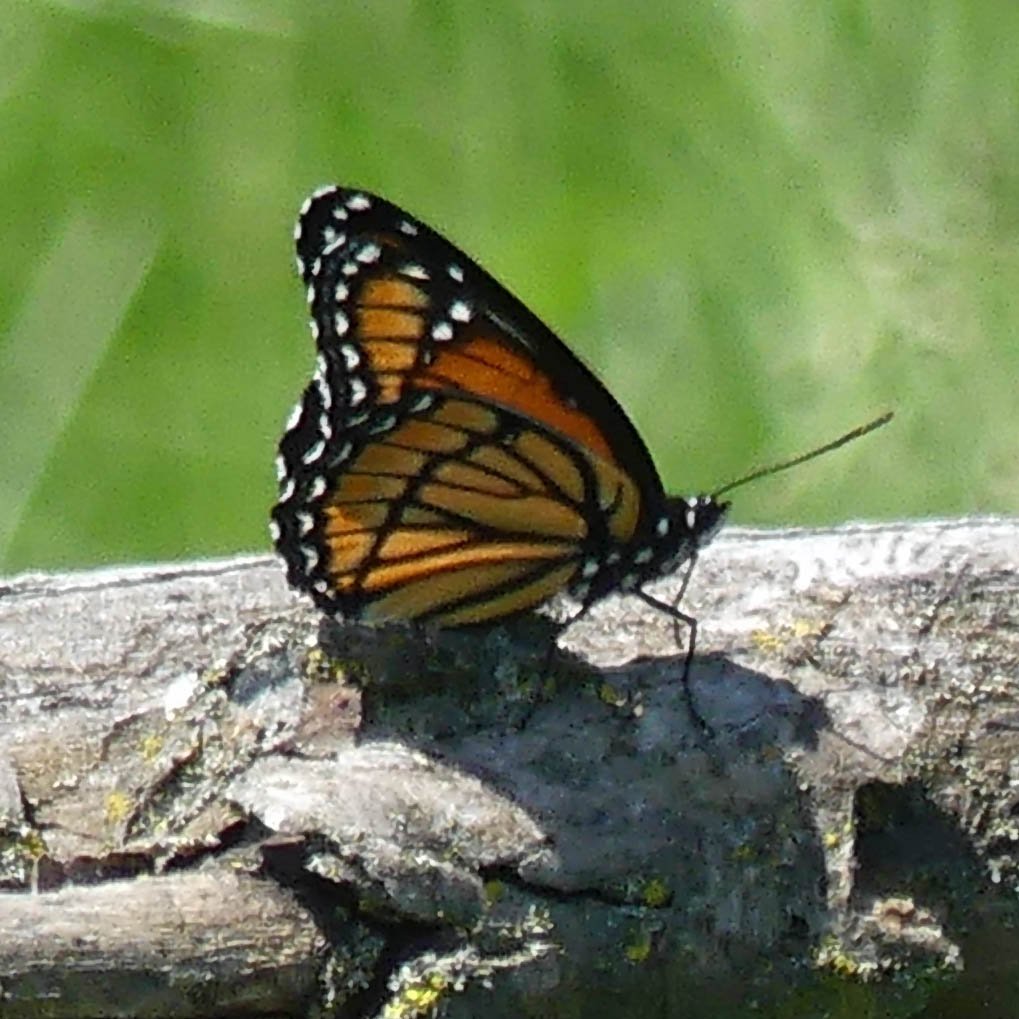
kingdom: Animalia
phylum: Arthropoda
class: Insecta
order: Lepidoptera
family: Nymphalidae
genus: Limenitis
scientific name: Limenitis archippus
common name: Viceroy
